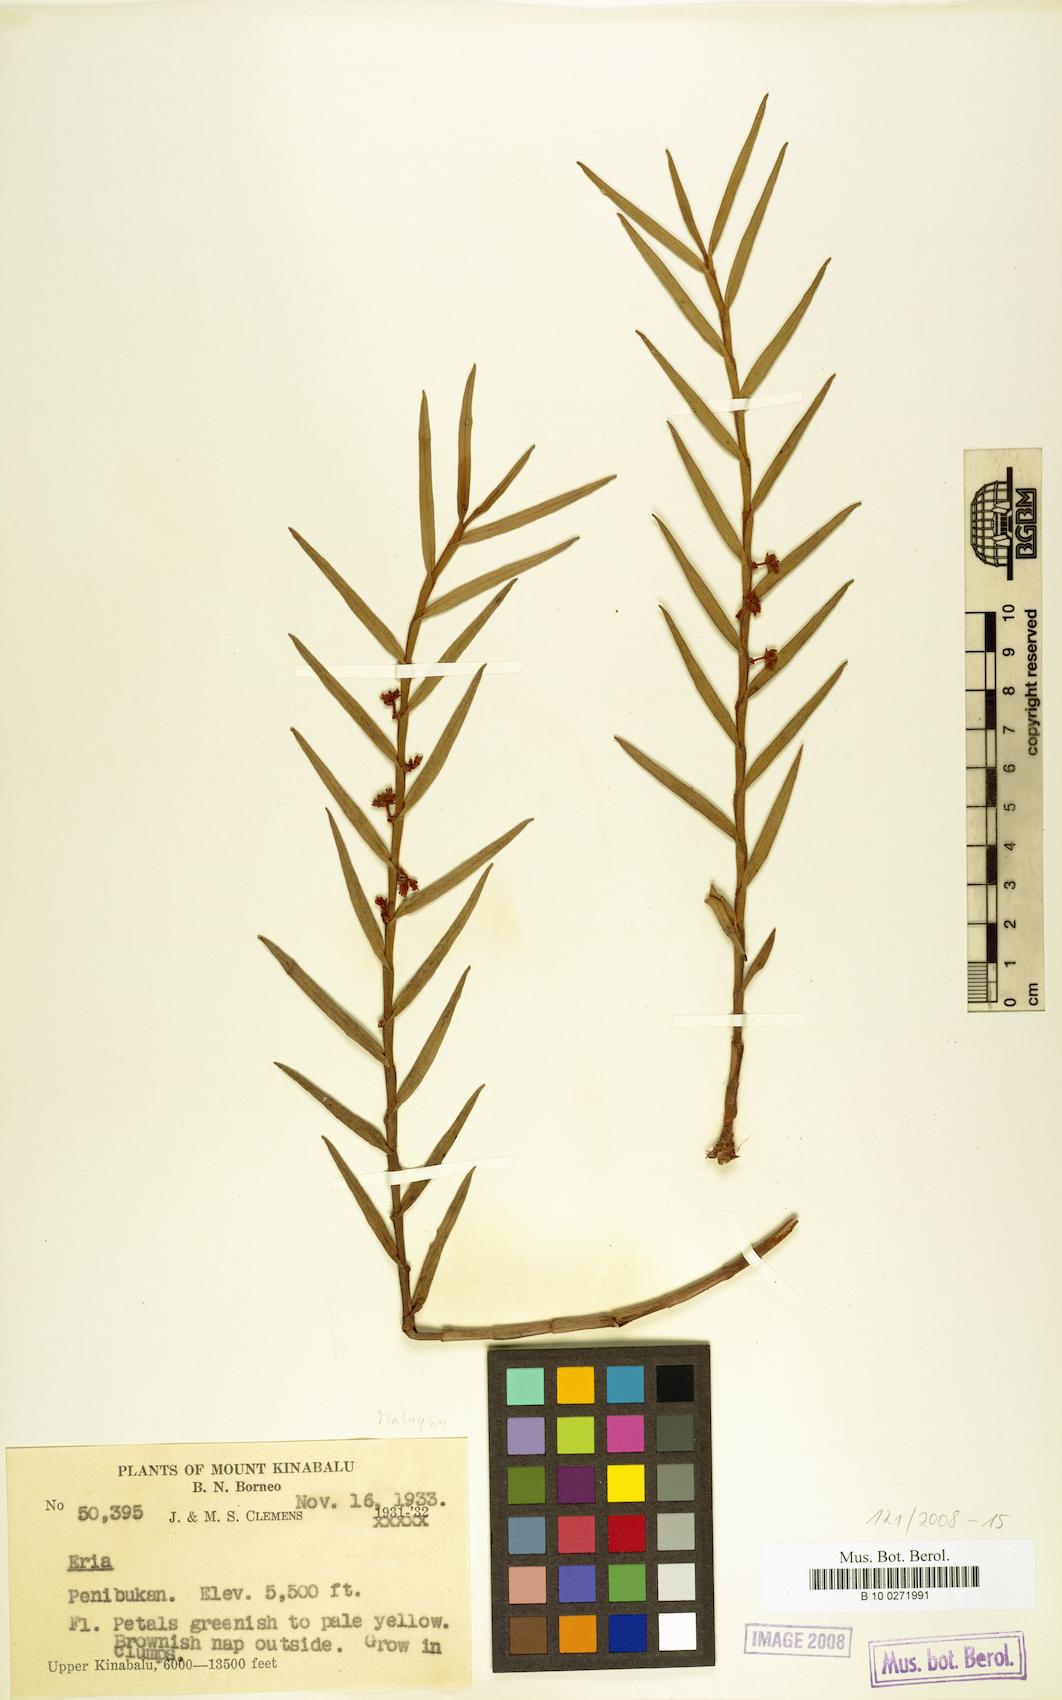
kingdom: Plantae
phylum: Tracheophyta
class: Liliopsida
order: Asparagales
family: Orchidaceae
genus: Eria
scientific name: Eria
